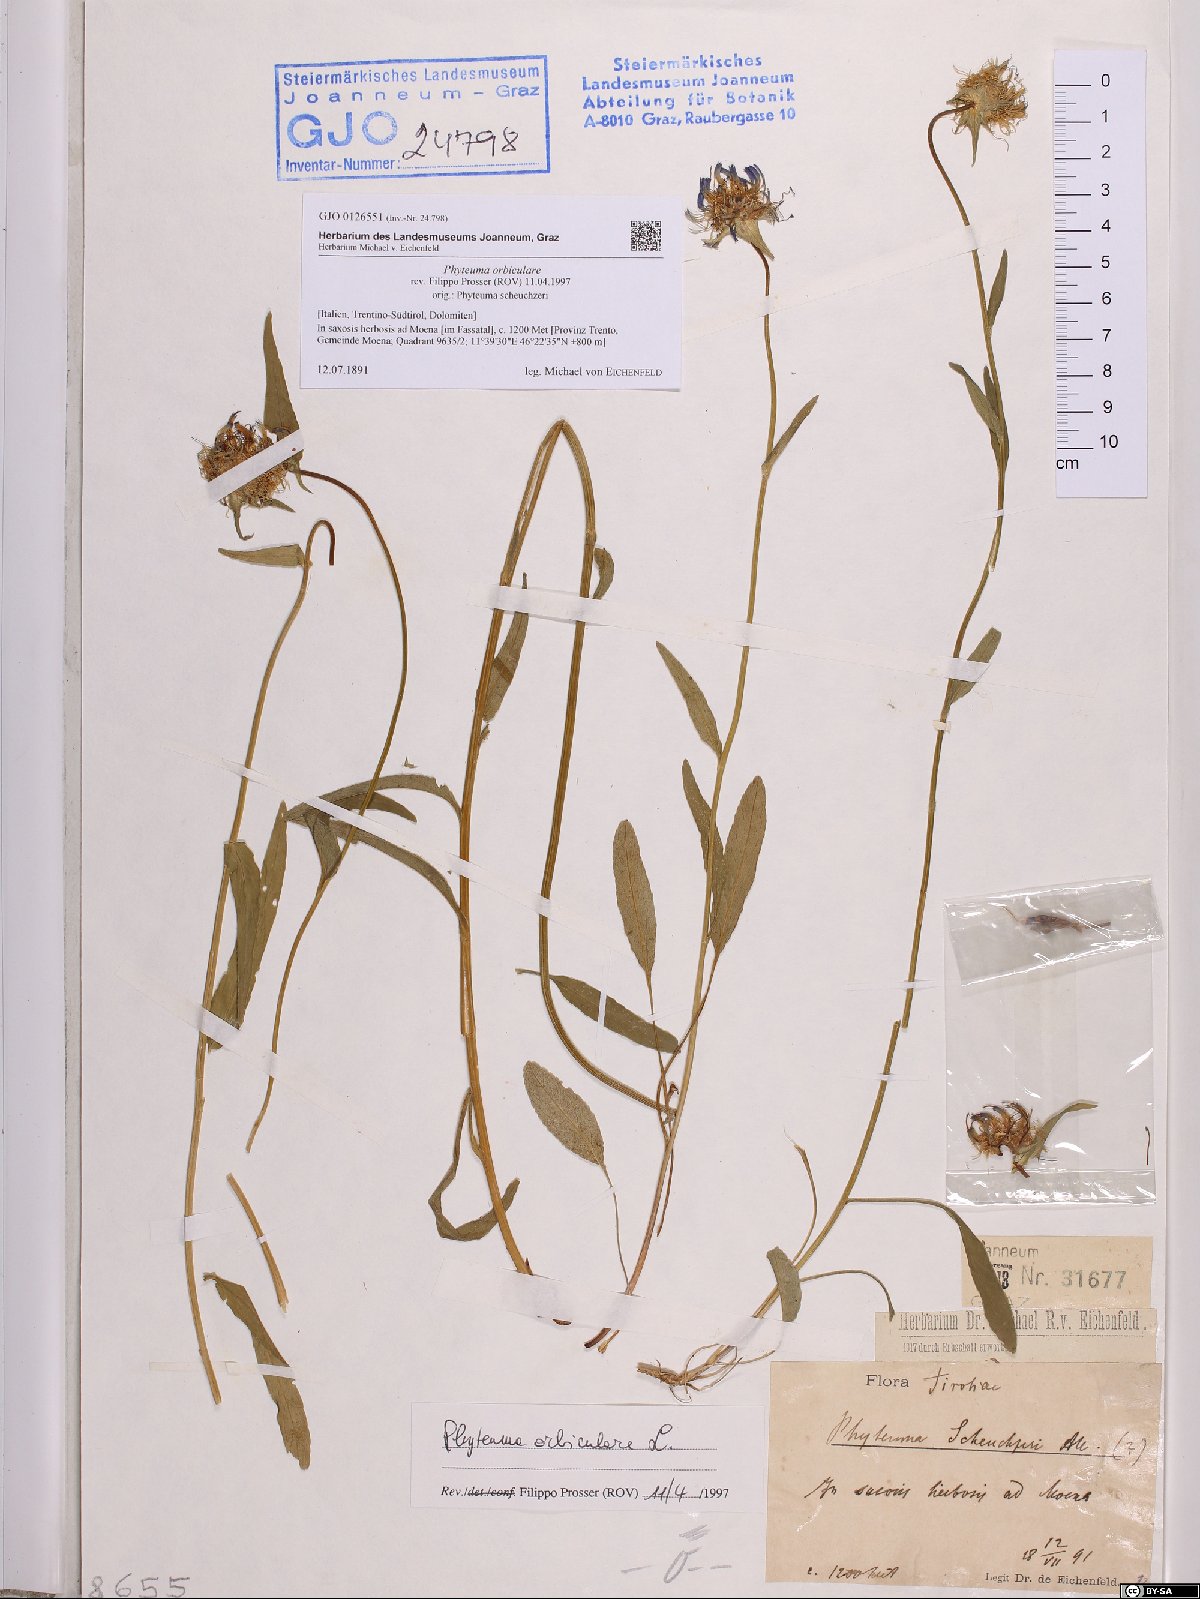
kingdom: Plantae
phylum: Tracheophyta
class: Magnoliopsida
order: Asterales
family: Campanulaceae
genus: Phyteuma
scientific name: Phyteuma orbiculare
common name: Round-headed rampion
